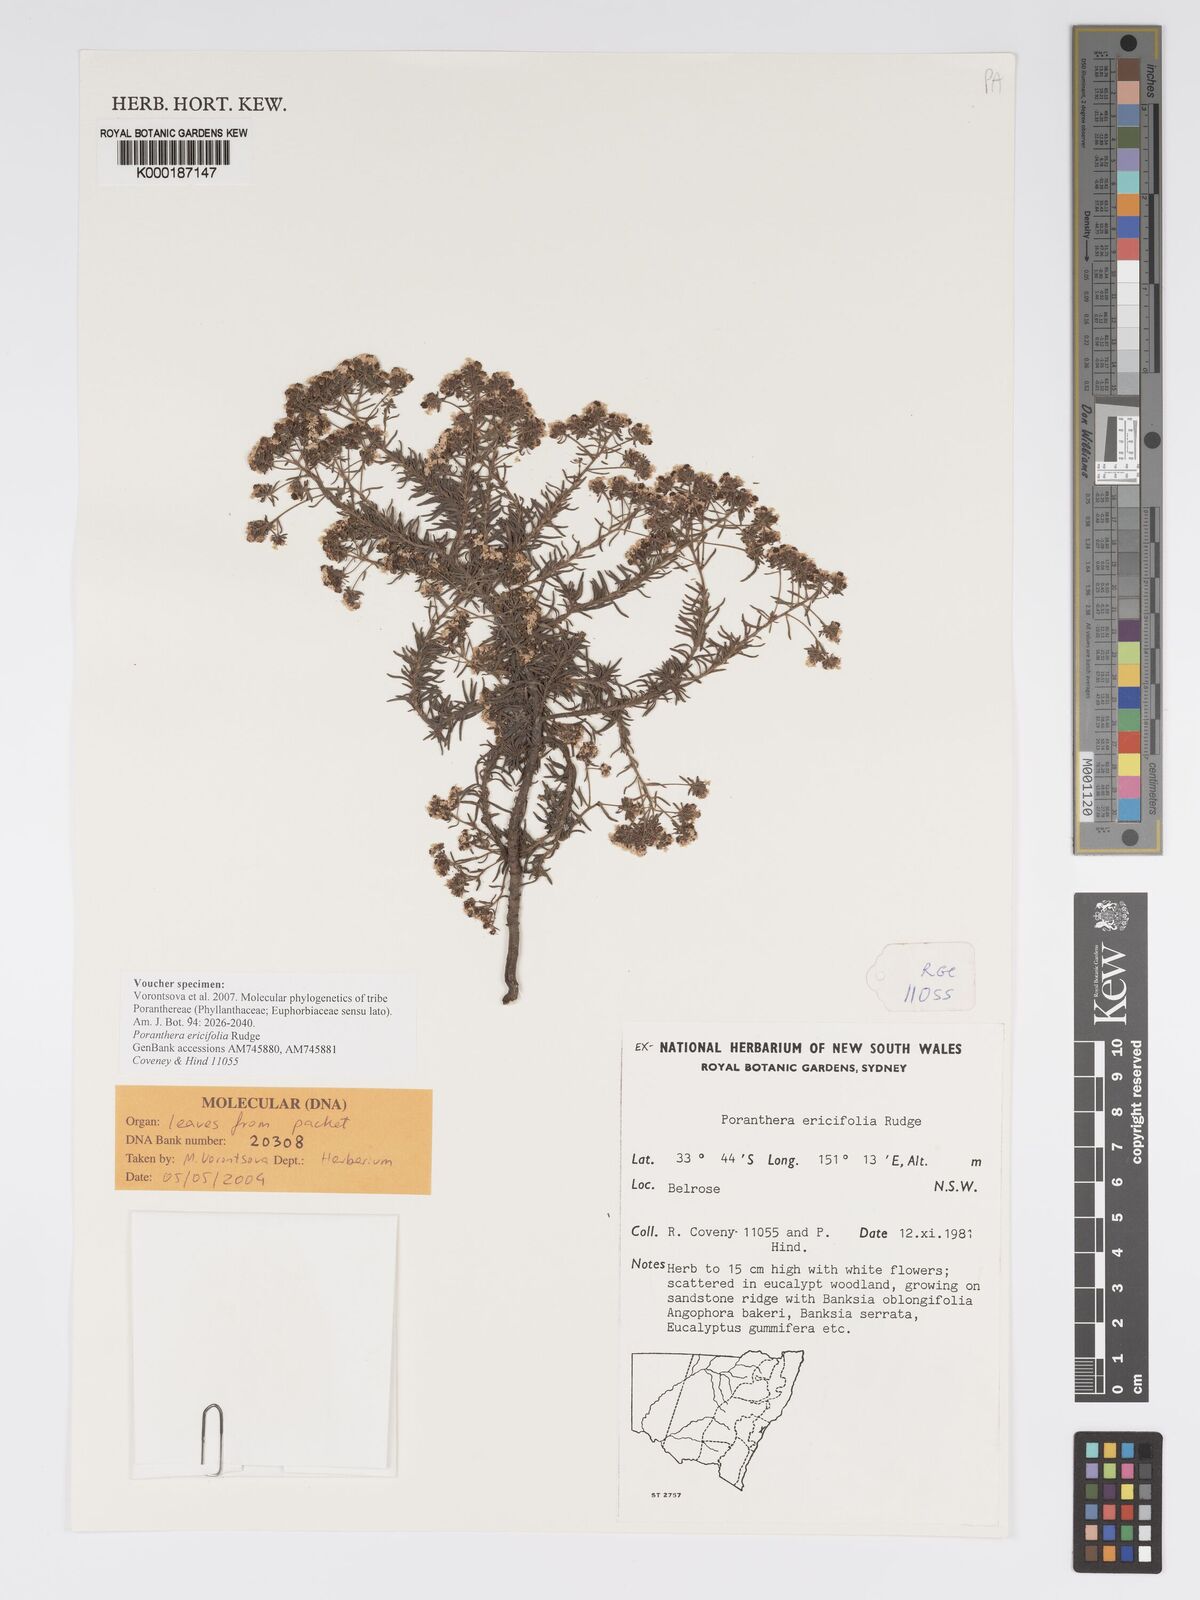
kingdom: Plantae
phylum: Tracheophyta
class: Magnoliopsida
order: Malpighiales
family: Phyllanthaceae
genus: Poranthera
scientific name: Poranthera ericifolia
